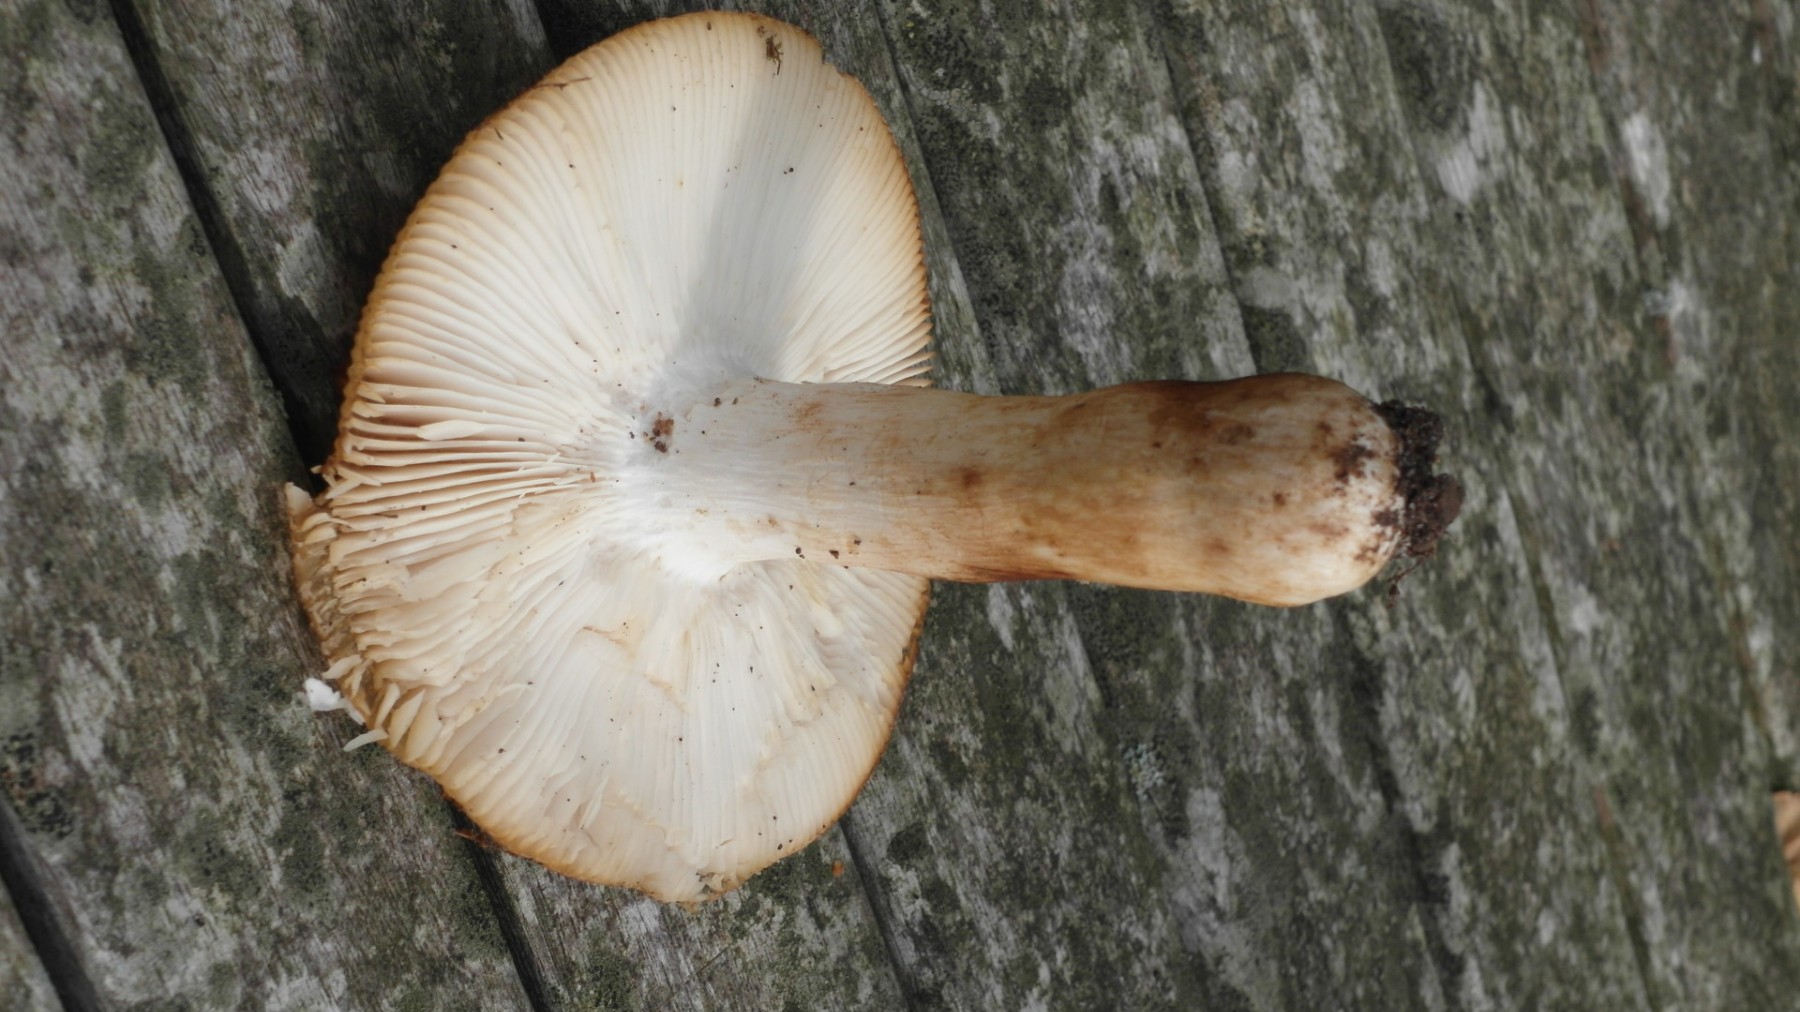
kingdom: Fungi
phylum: Basidiomycota
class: Agaricomycetes
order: Russulales
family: Russulaceae
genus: Russula
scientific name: Russula grata
